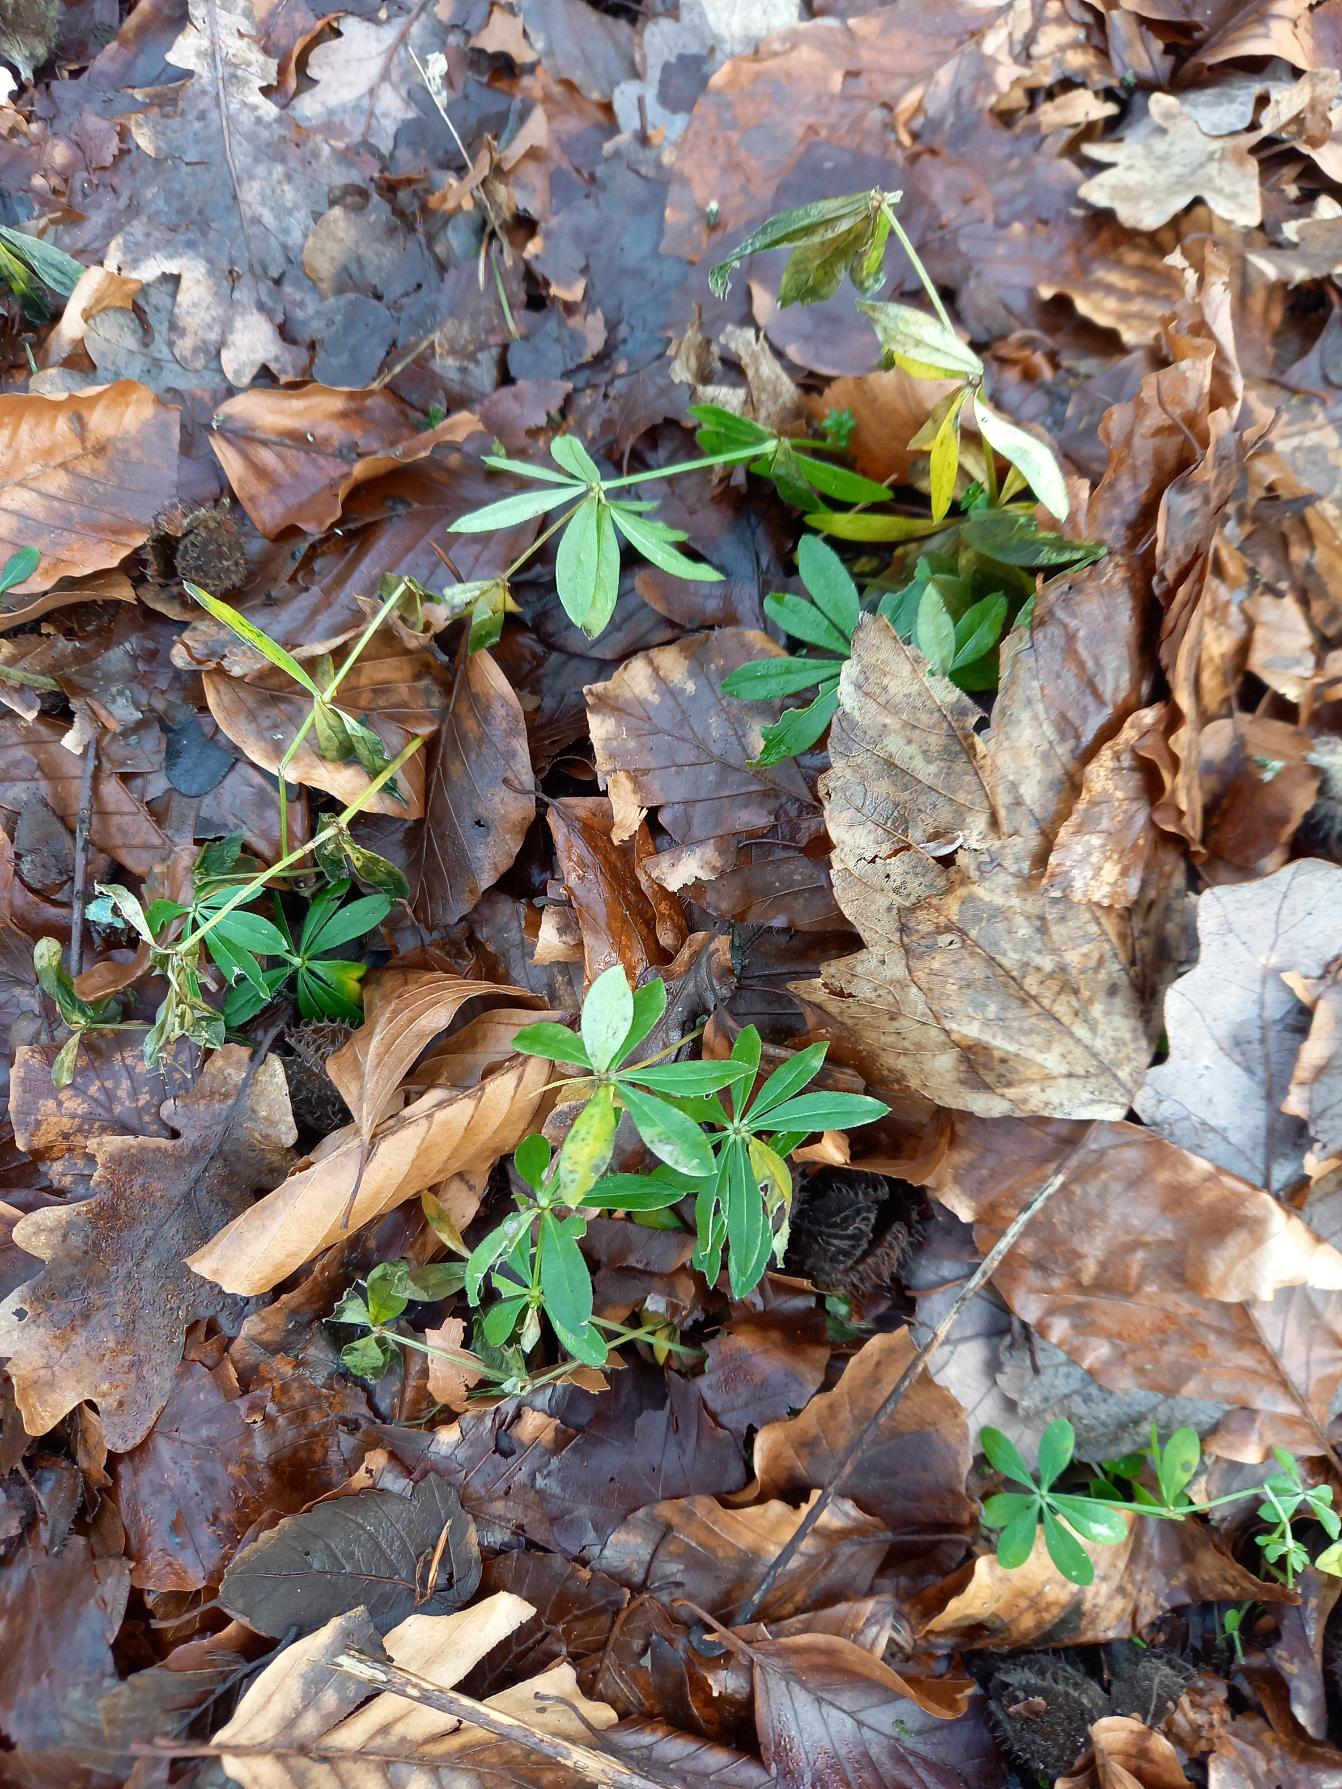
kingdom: Plantae
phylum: Tracheophyta
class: Magnoliopsida
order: Gentianales
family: Rubiaceae
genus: Galium
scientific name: Galium odoratum
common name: Skovmærke
